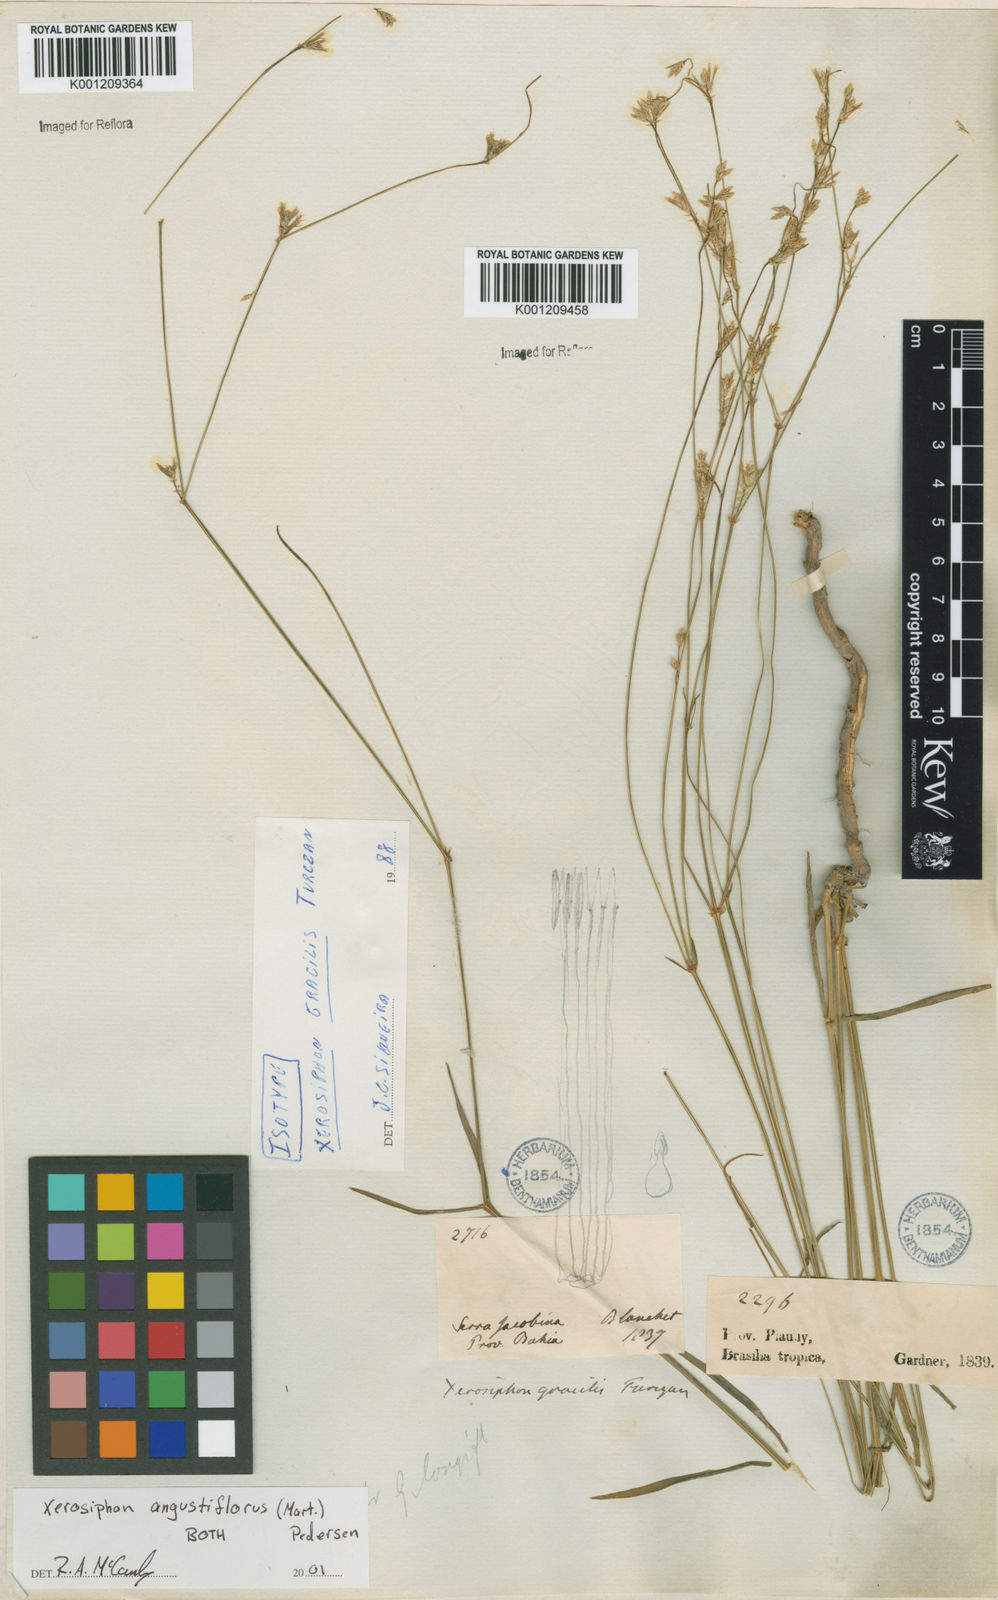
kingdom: Plantae
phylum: Tracheophyta
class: Magnoliopsida
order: Caryophyllales
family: Amaranthaceae
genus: Gomphrena
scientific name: Gomphrena angustiflora
